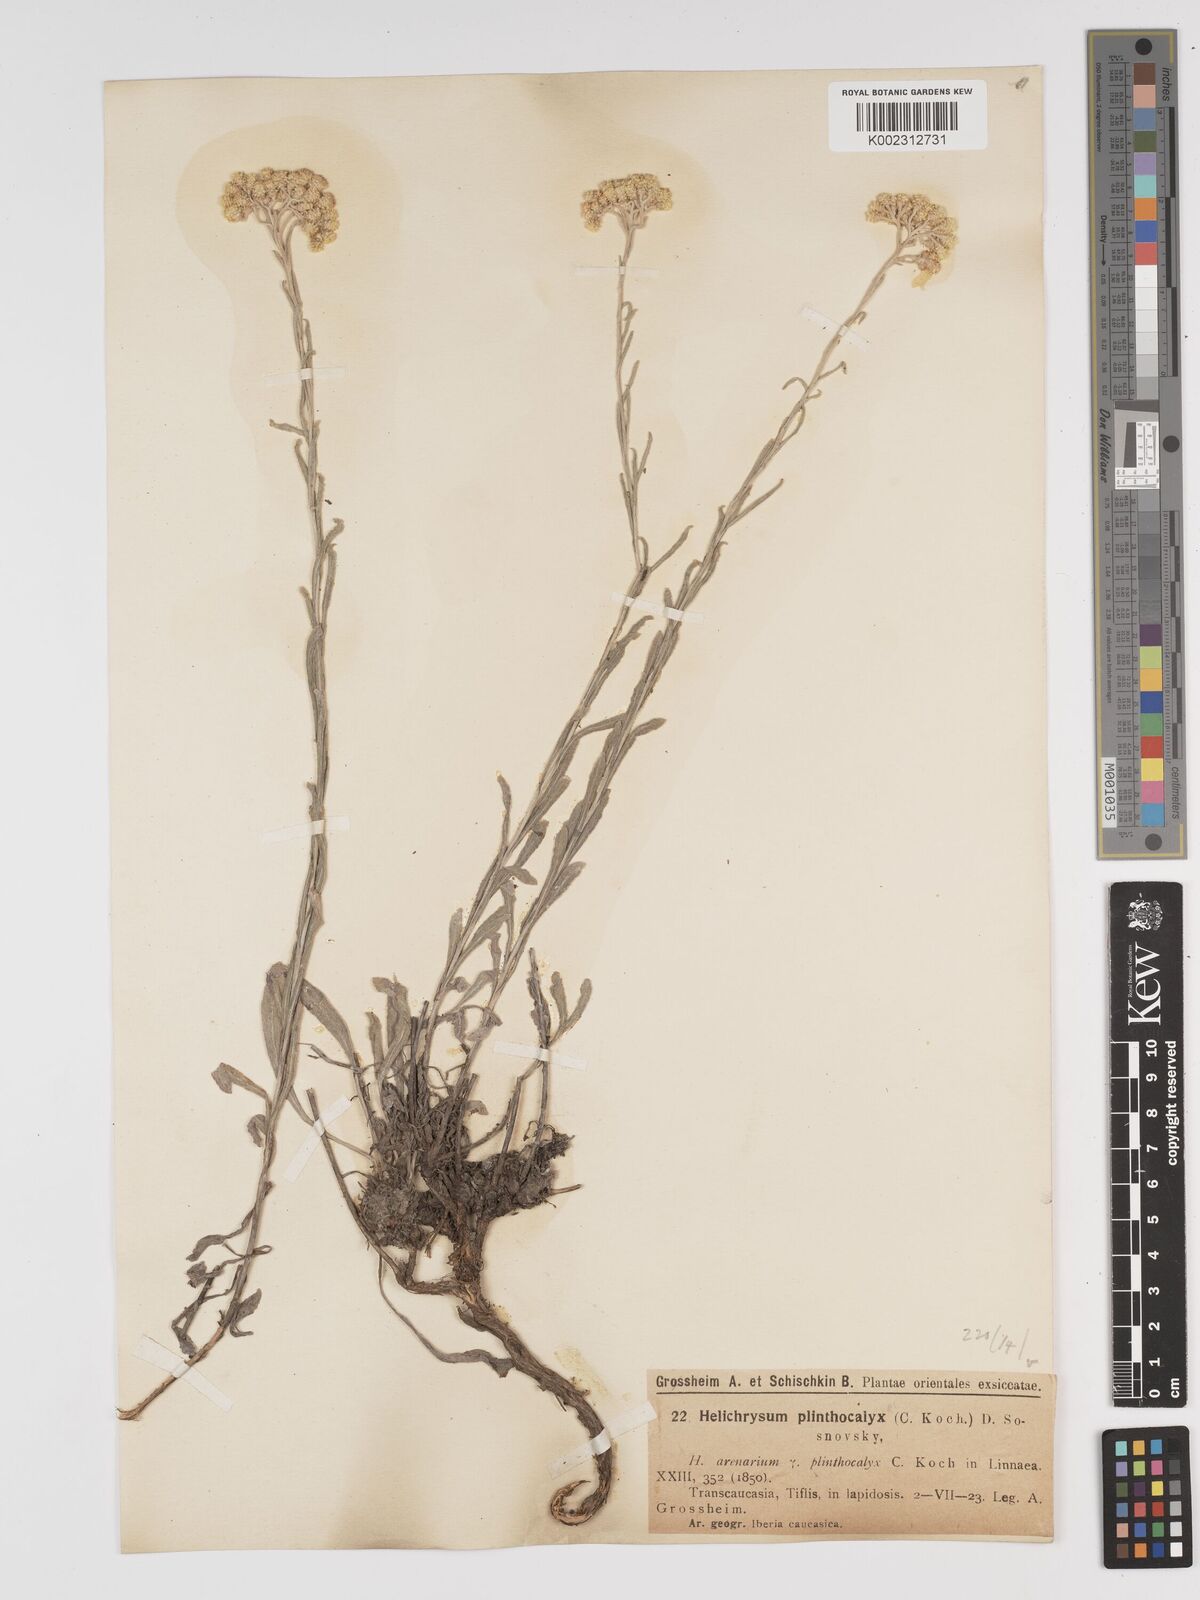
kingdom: Plantae
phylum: Tracheophyta
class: Magnoliopsida
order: Asterales
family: Asteraceae
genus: Helichrysum
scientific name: Helichrysum oocephalum
